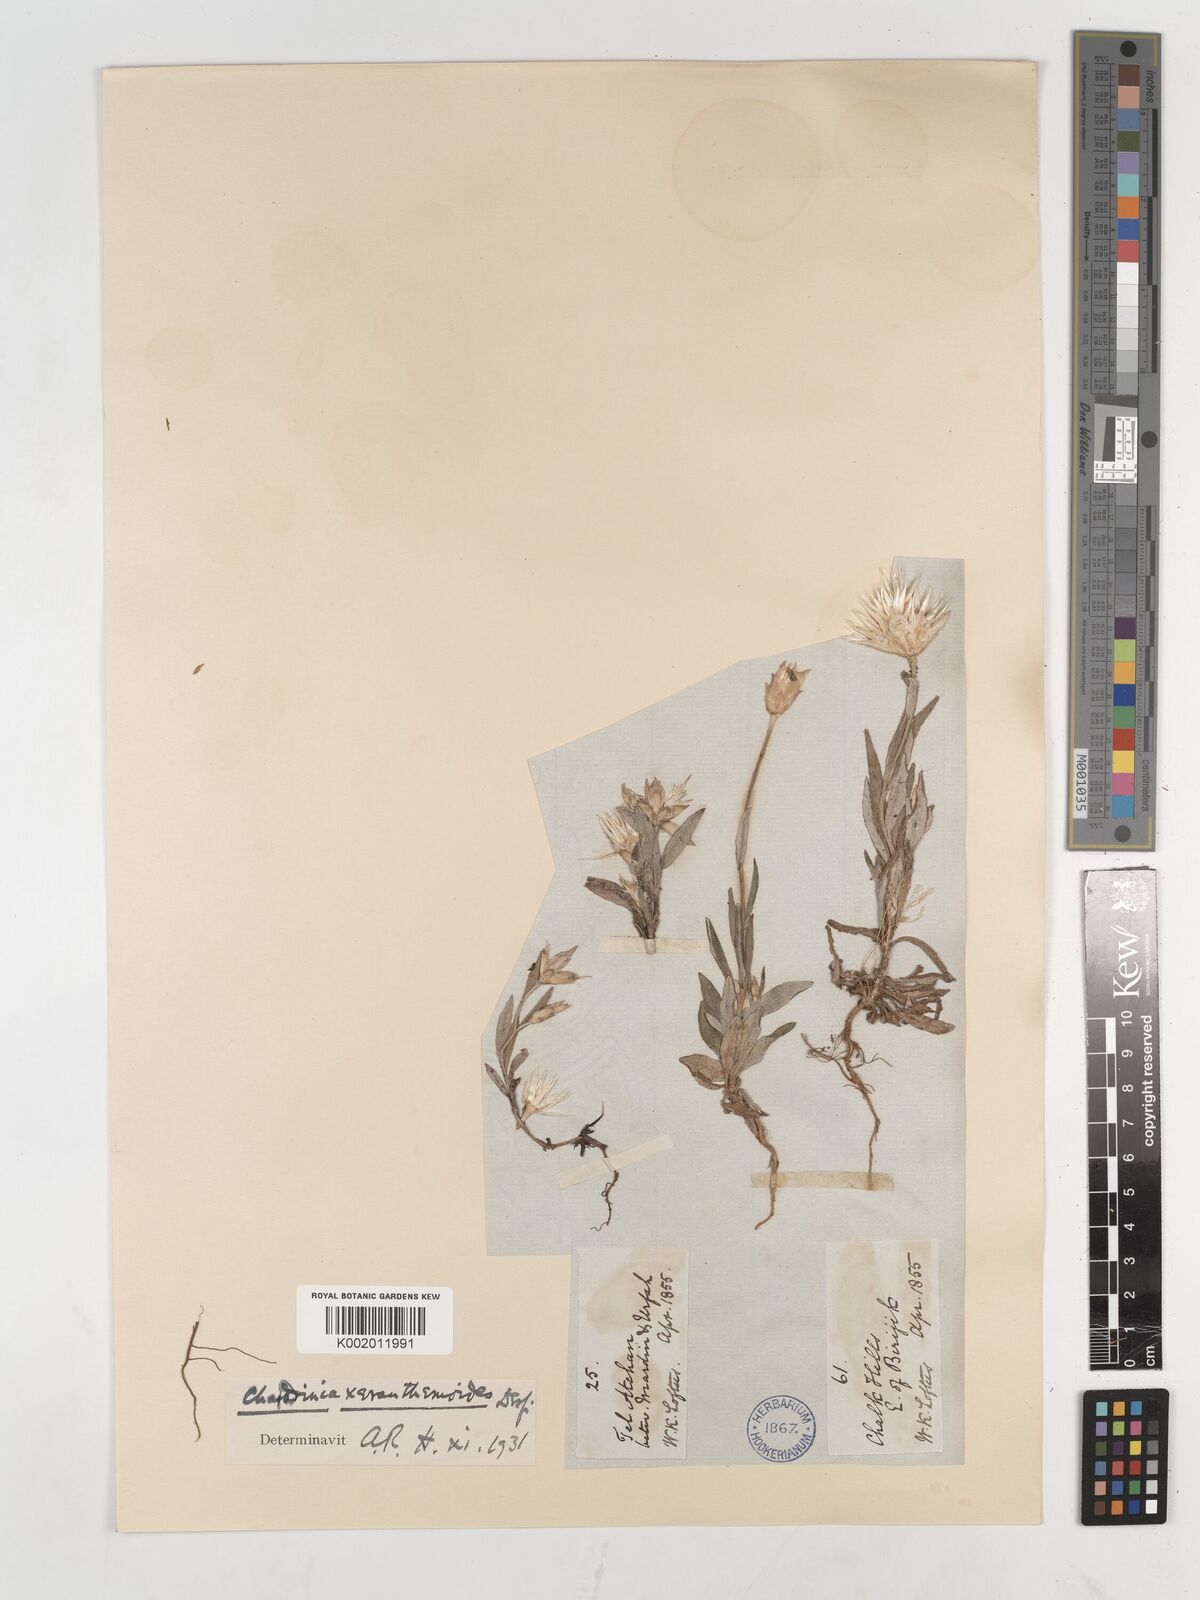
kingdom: Plantae
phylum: Tracheophyta
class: Magnoliopsida
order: Asterales
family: Asteraceae
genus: Chardinia
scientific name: Chardinia orientalis
